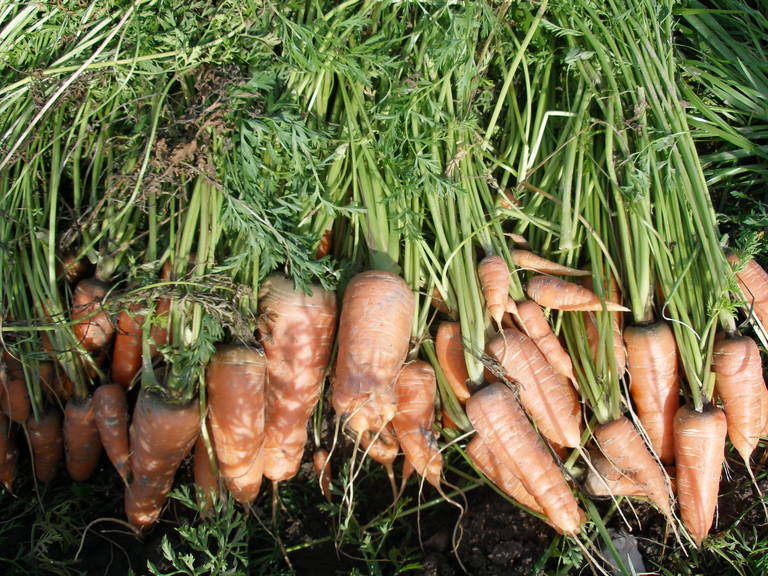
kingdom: Plantae
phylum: Tracheophyta
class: Magnoliopsida
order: Apiales
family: Apiaceae
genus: Daucus
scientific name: Daucus carota
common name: Wild carrot
